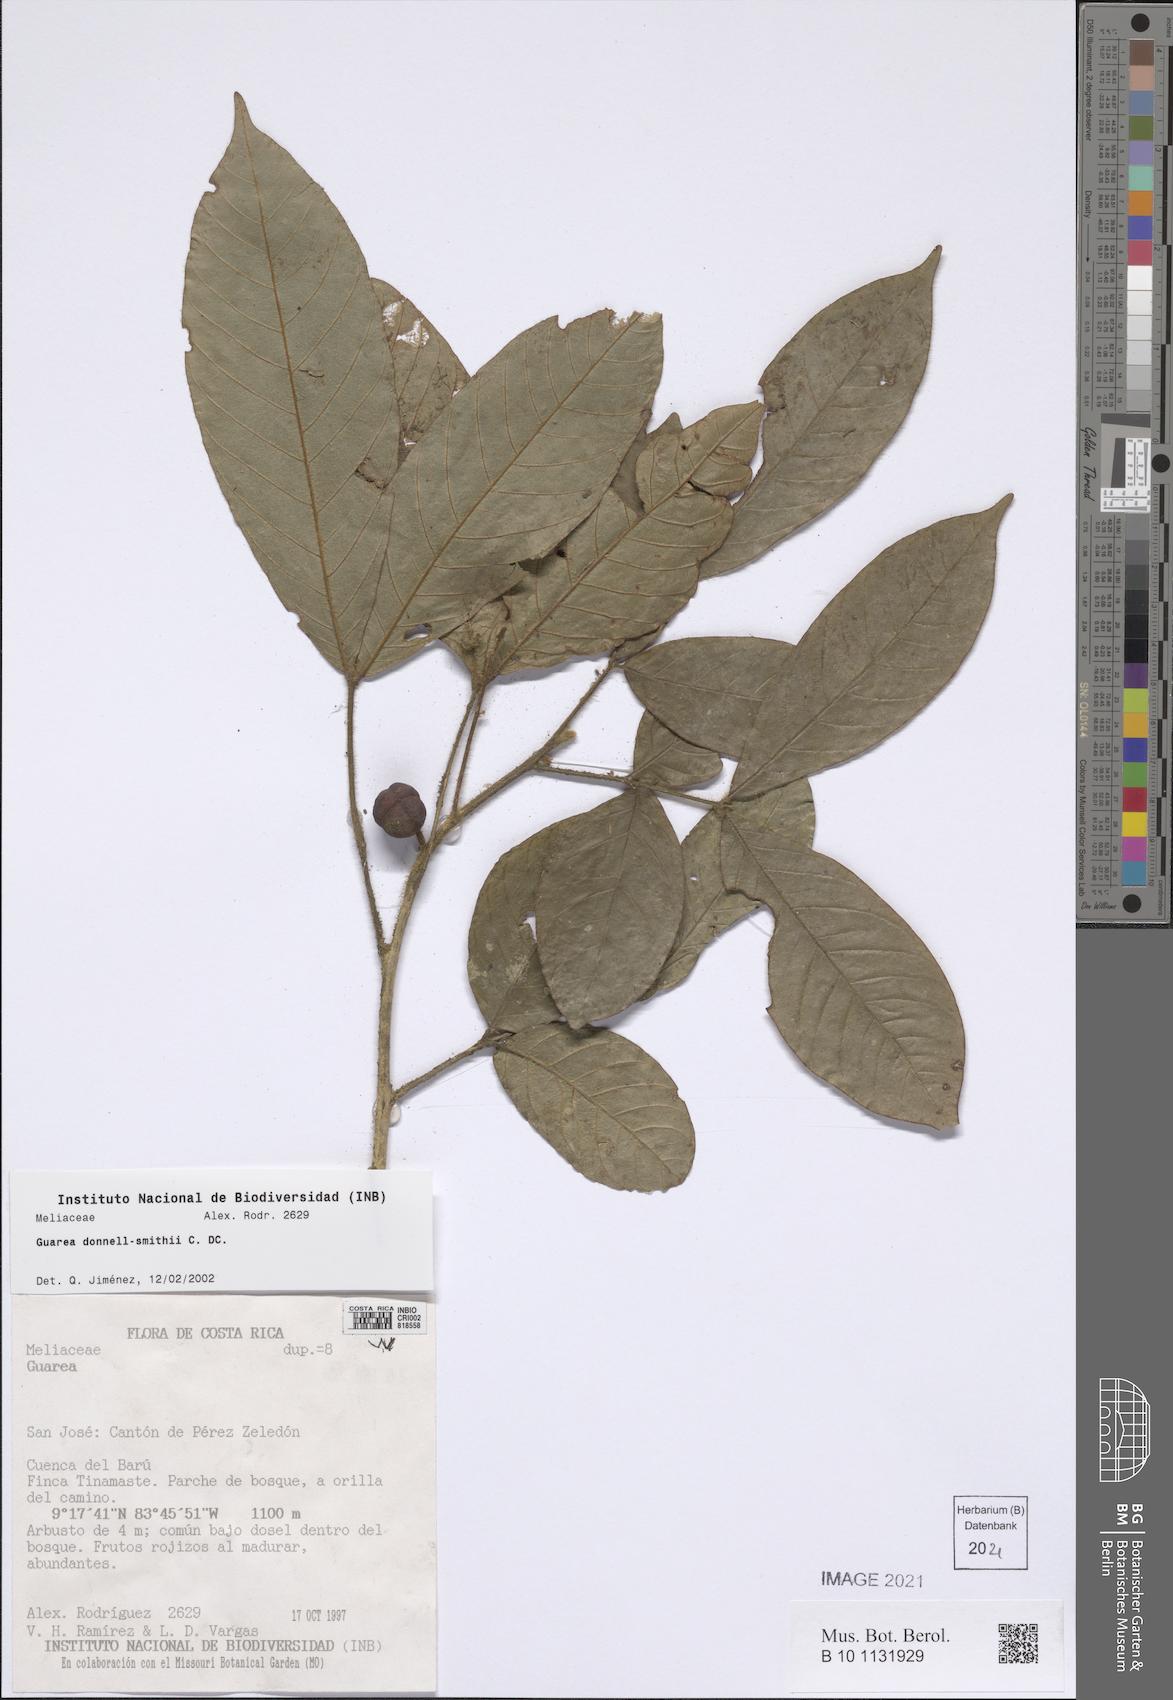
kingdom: Plantae
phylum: Tracheophyta
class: Magnoliopsida
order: Sapindales
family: Meliaceae
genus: Guarea
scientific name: Guarea glabra
